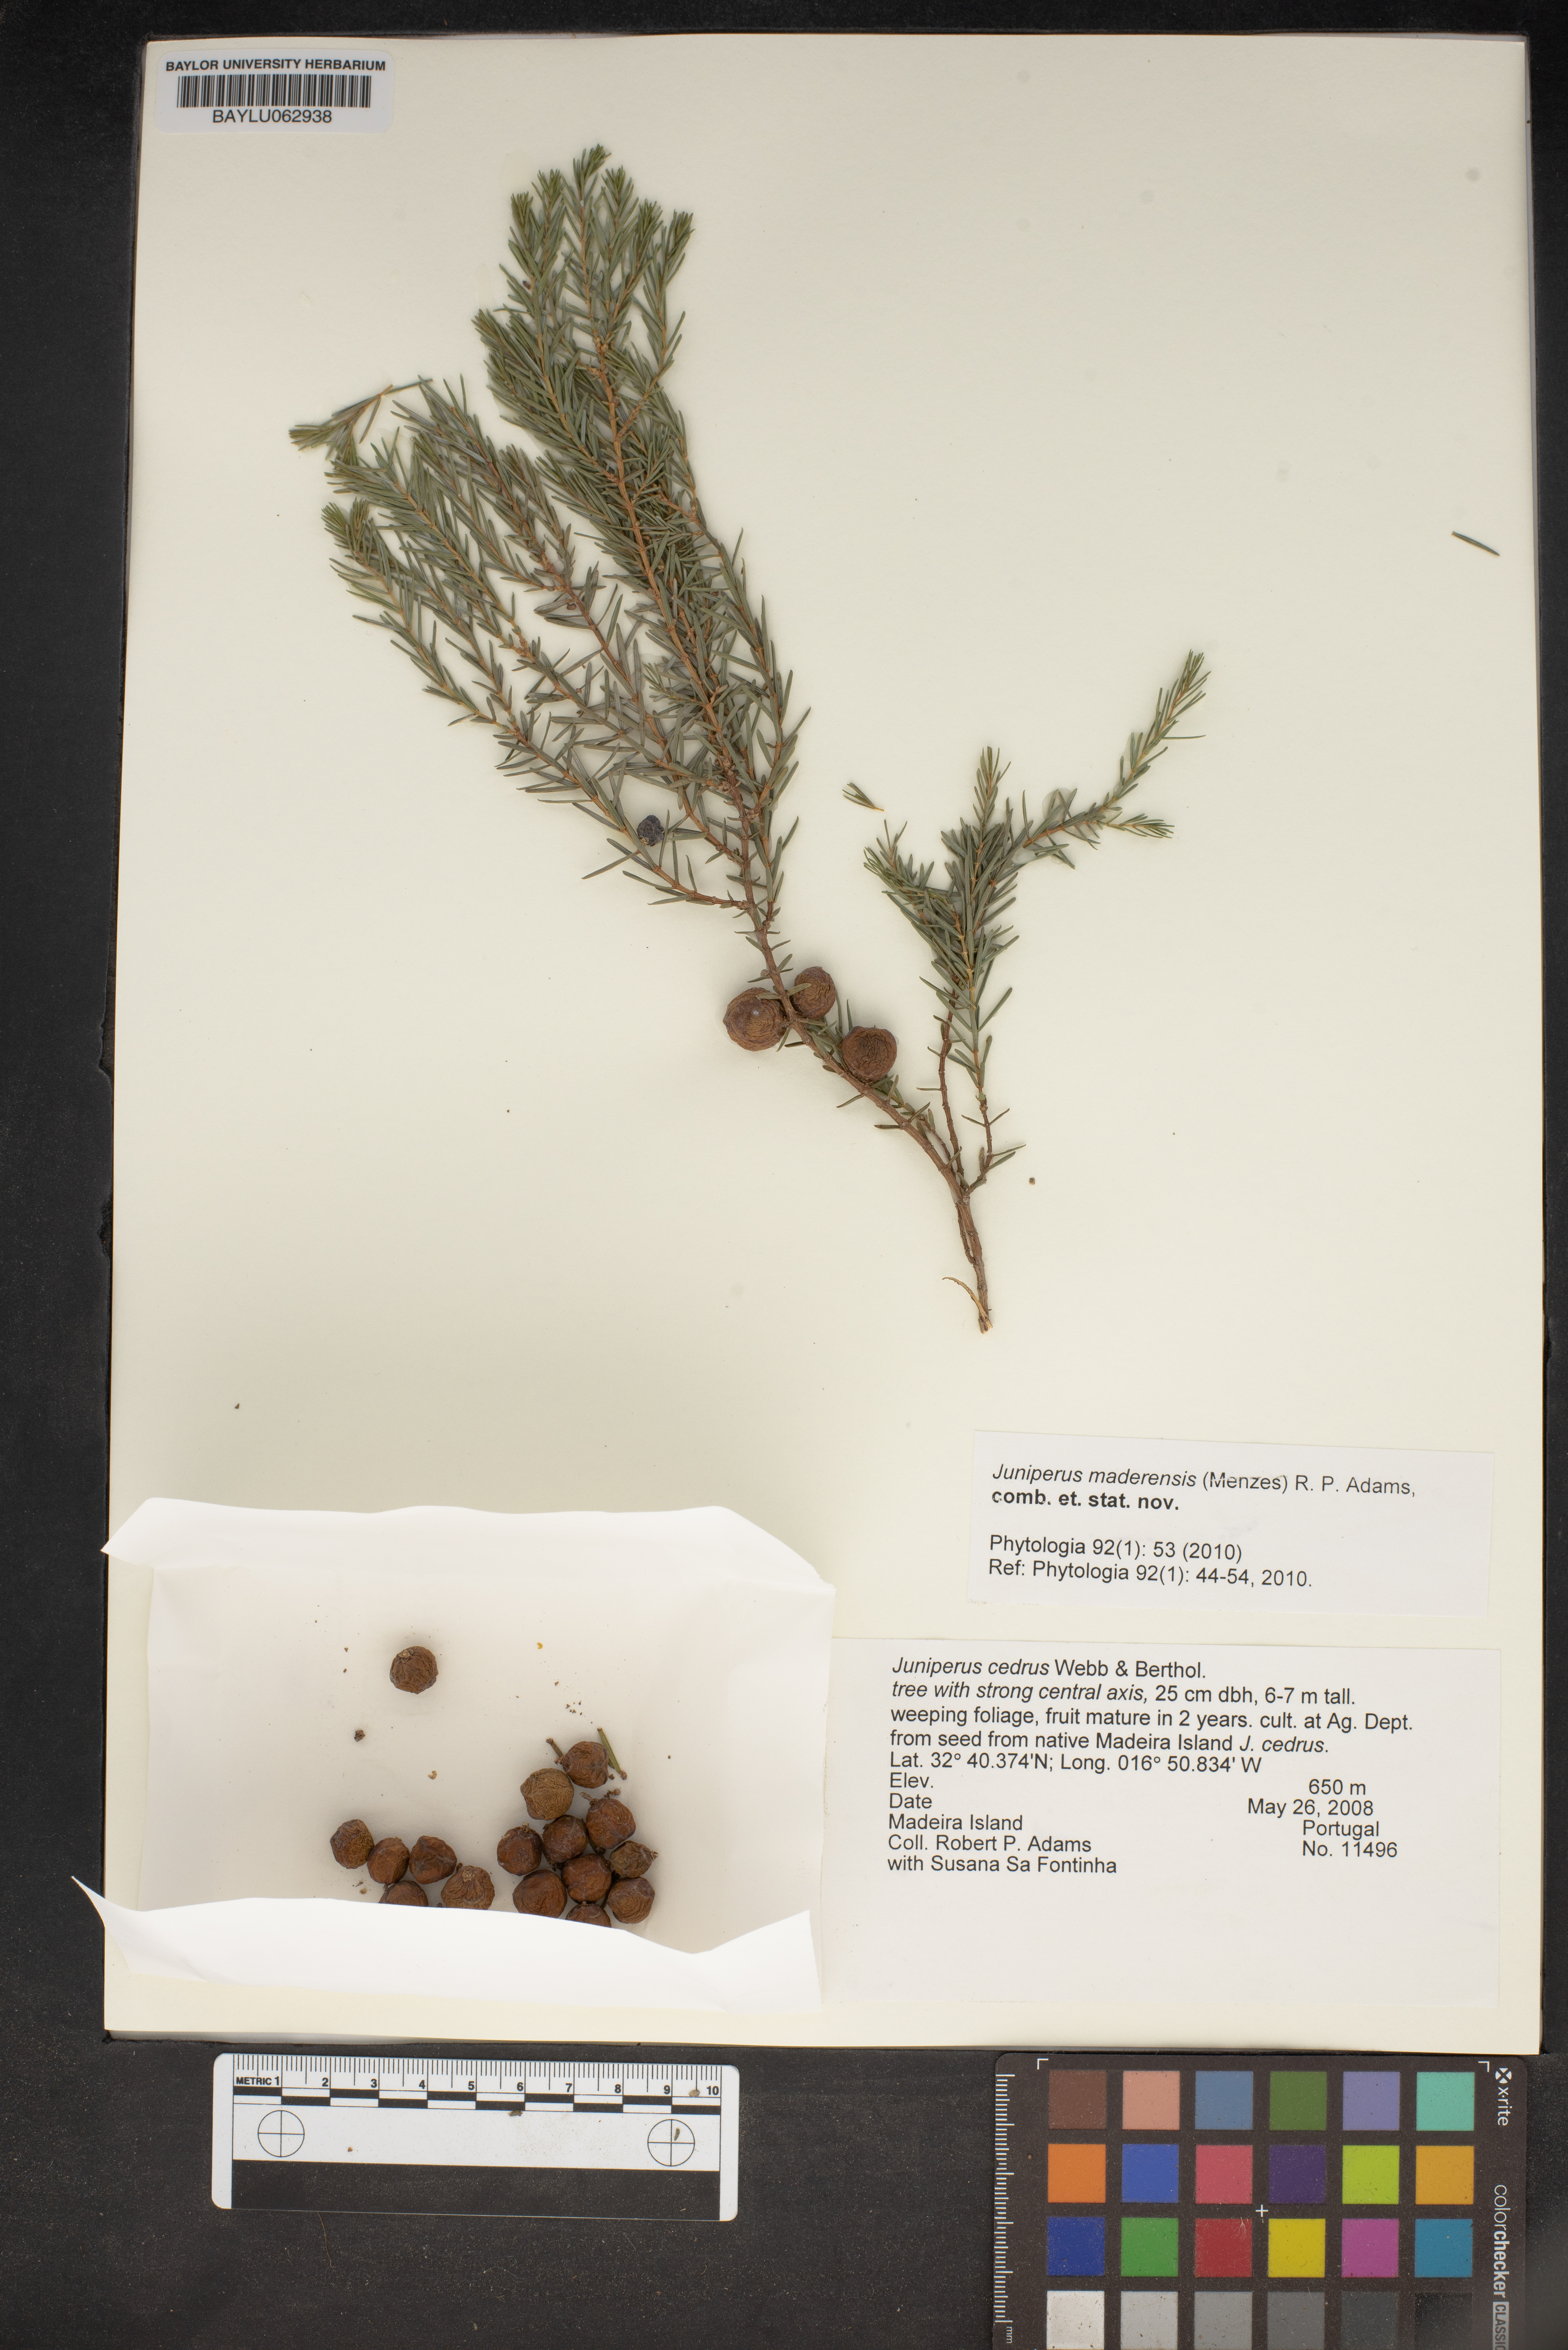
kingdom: Plantae
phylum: Tracheophyta
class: Pinopsida
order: Pinales
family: Cupressaceae
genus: Juniperus
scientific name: Juniperus cedrus
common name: Canary islands juniper
